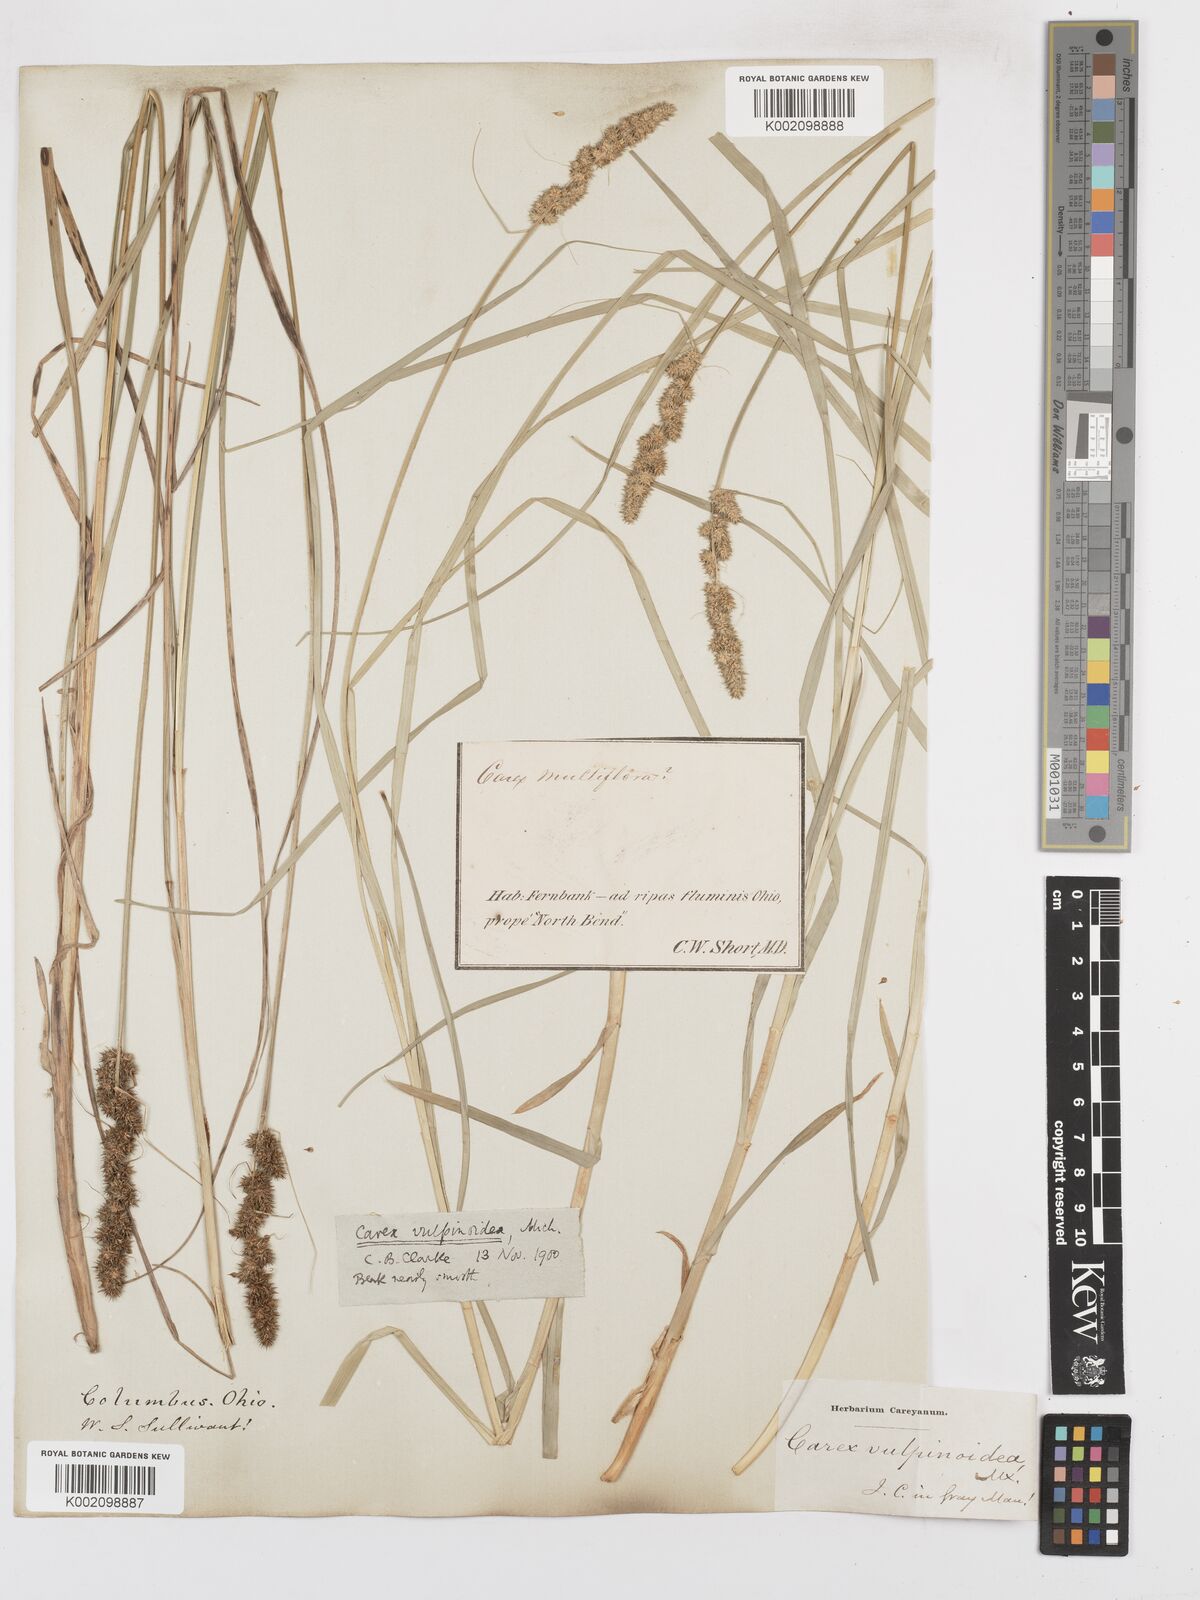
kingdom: Plantae
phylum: Tracheophyta
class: Liliopsida
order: Poales
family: Cyperaceae
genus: Carex
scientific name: Carex vulpinoidea
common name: American fox-sedge
